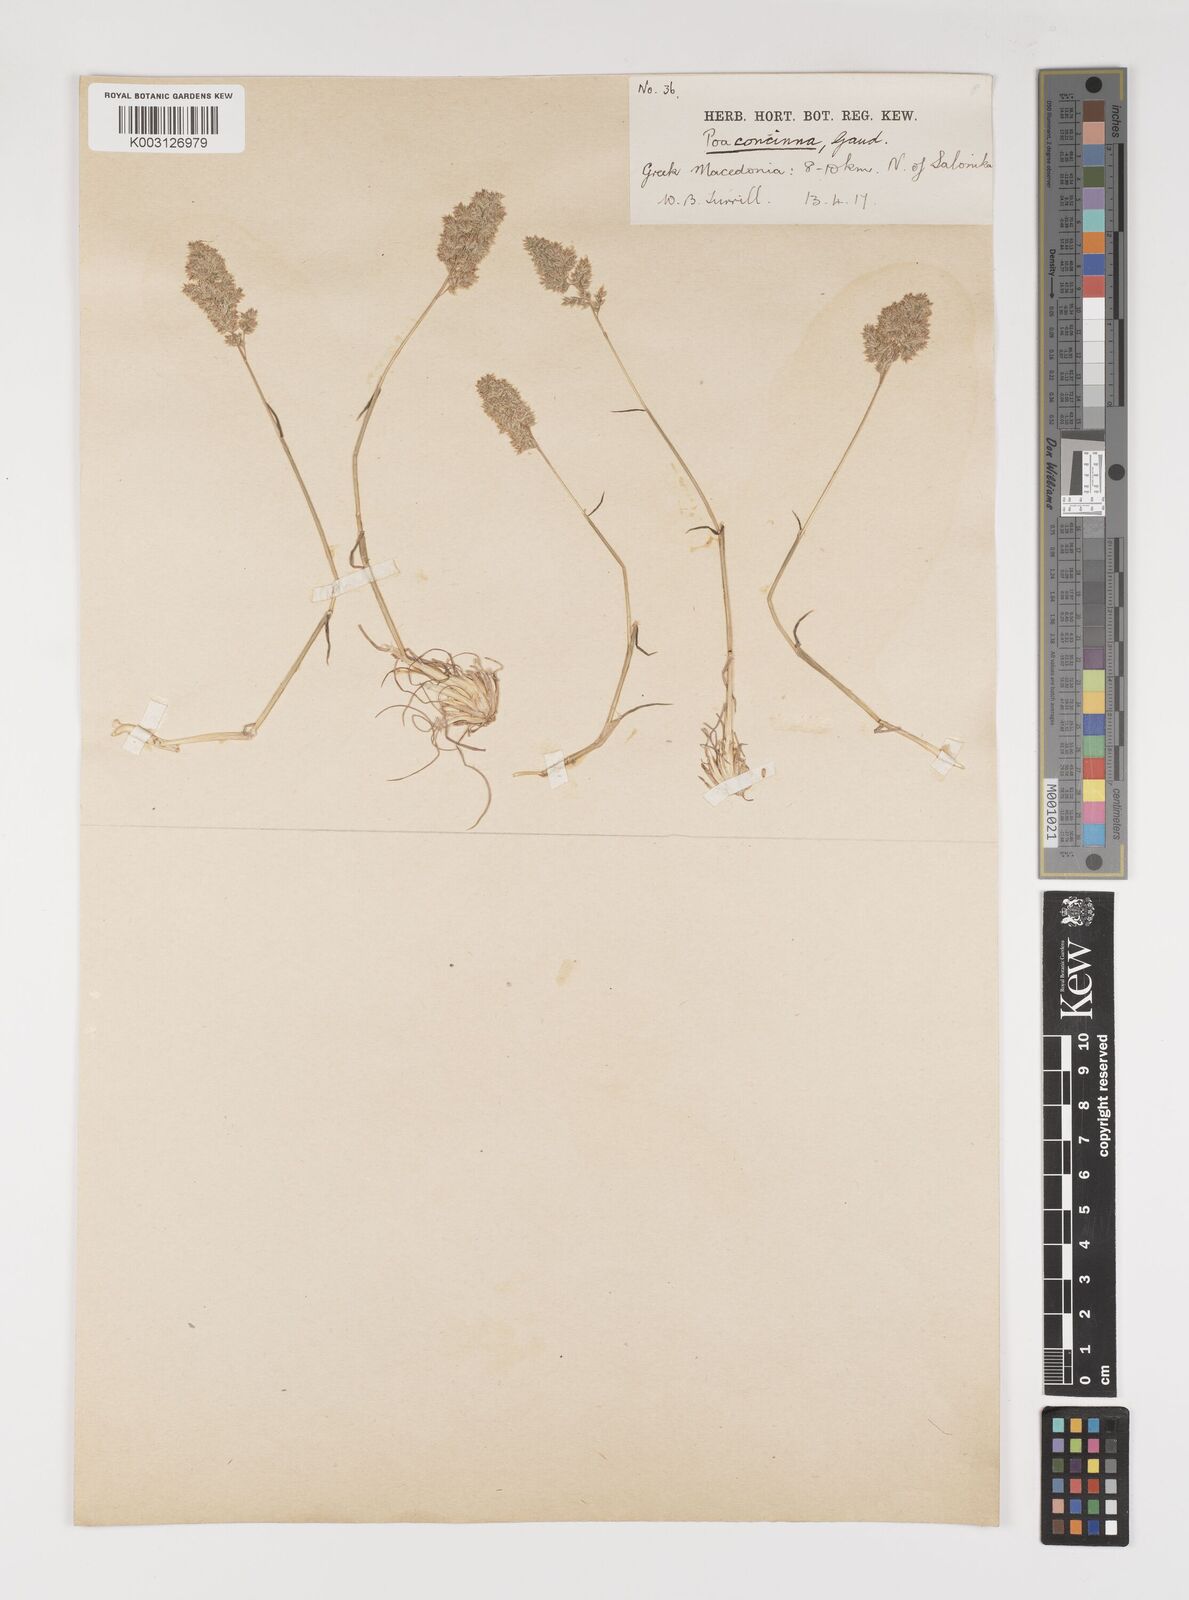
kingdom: Plantae
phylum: Tracheophyta
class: Liliopsida
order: Poales
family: Poaceae
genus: Poa
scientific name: Poa perconcinna
